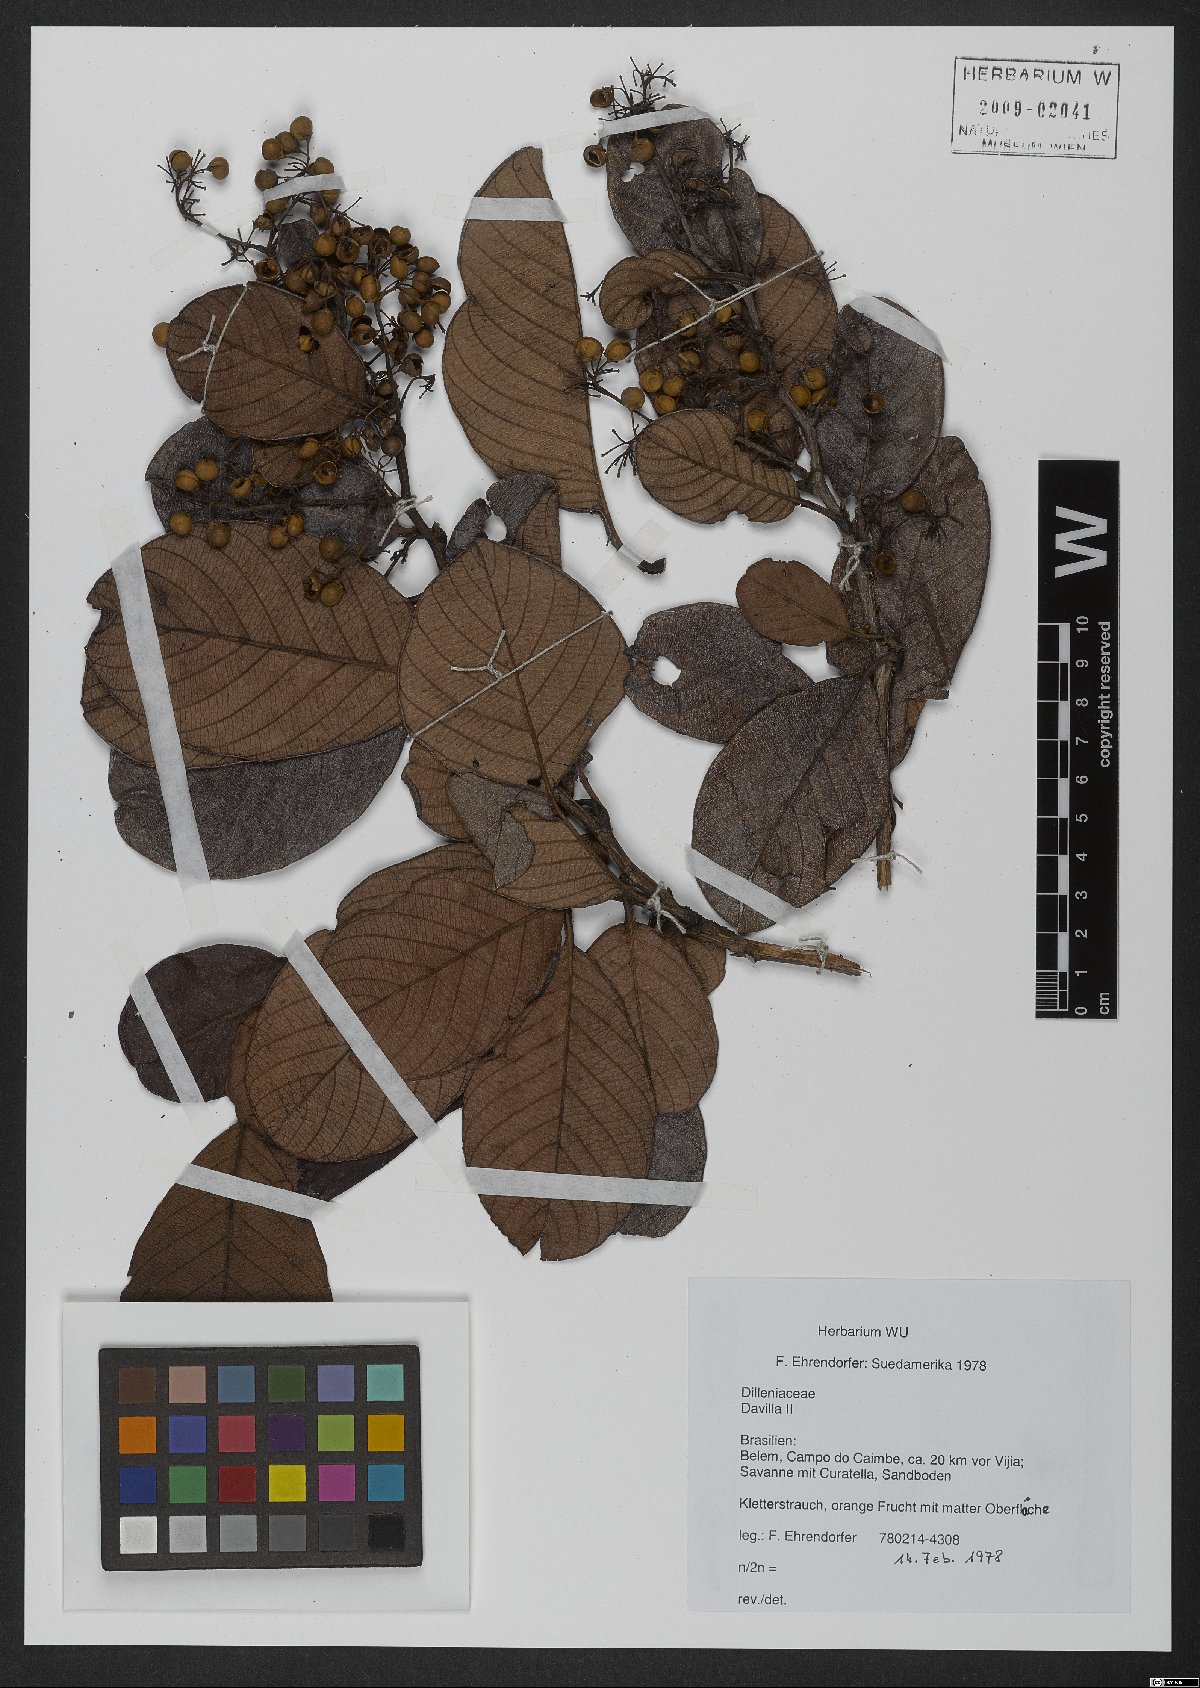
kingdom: Plantae
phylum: Tracheophyta
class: Magnoliopsida
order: Dilleniales
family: Dilleniaceae
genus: Davilla
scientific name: Davilla
